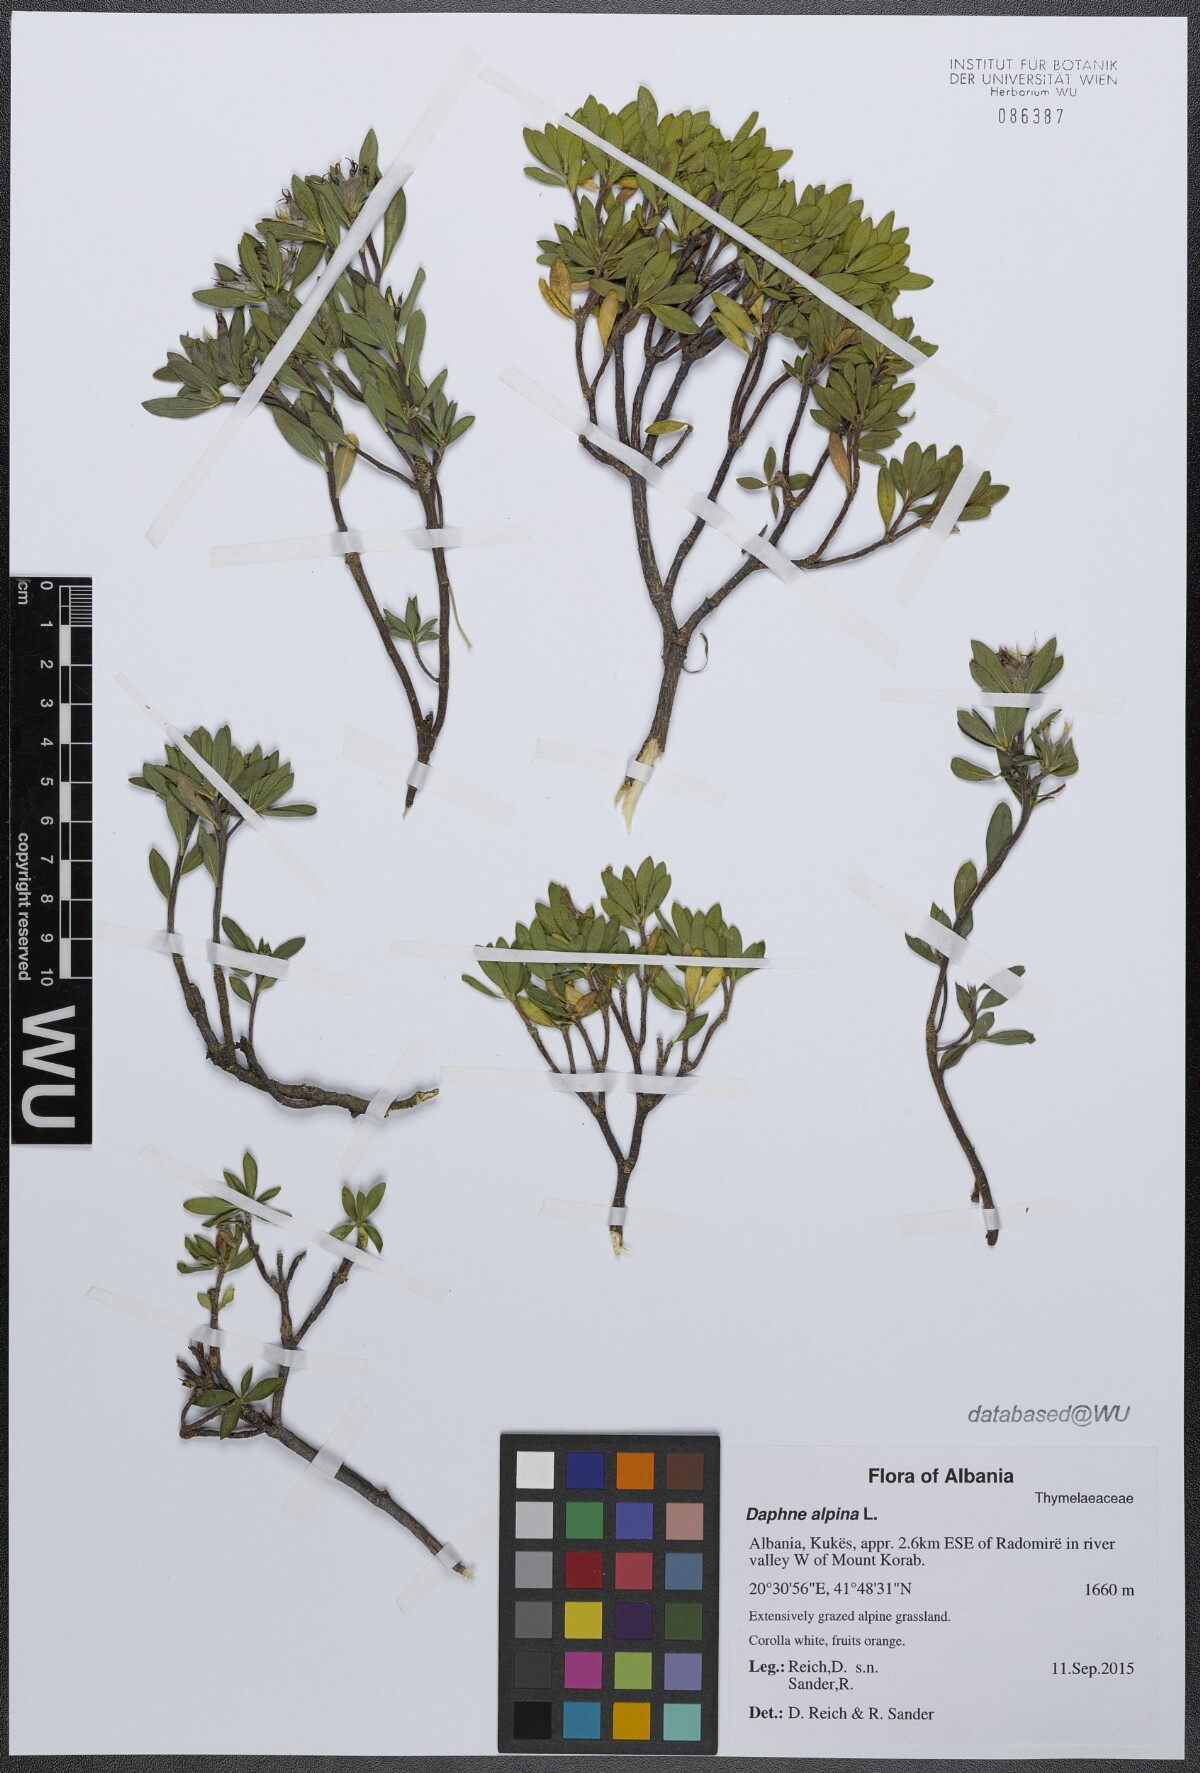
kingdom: Plantae
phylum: Tracheophyta
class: Magnoliopsida
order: Malvales
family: Thymelaeaceae
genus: Daphne
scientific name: Daphne alpina
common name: Alpine daphne
